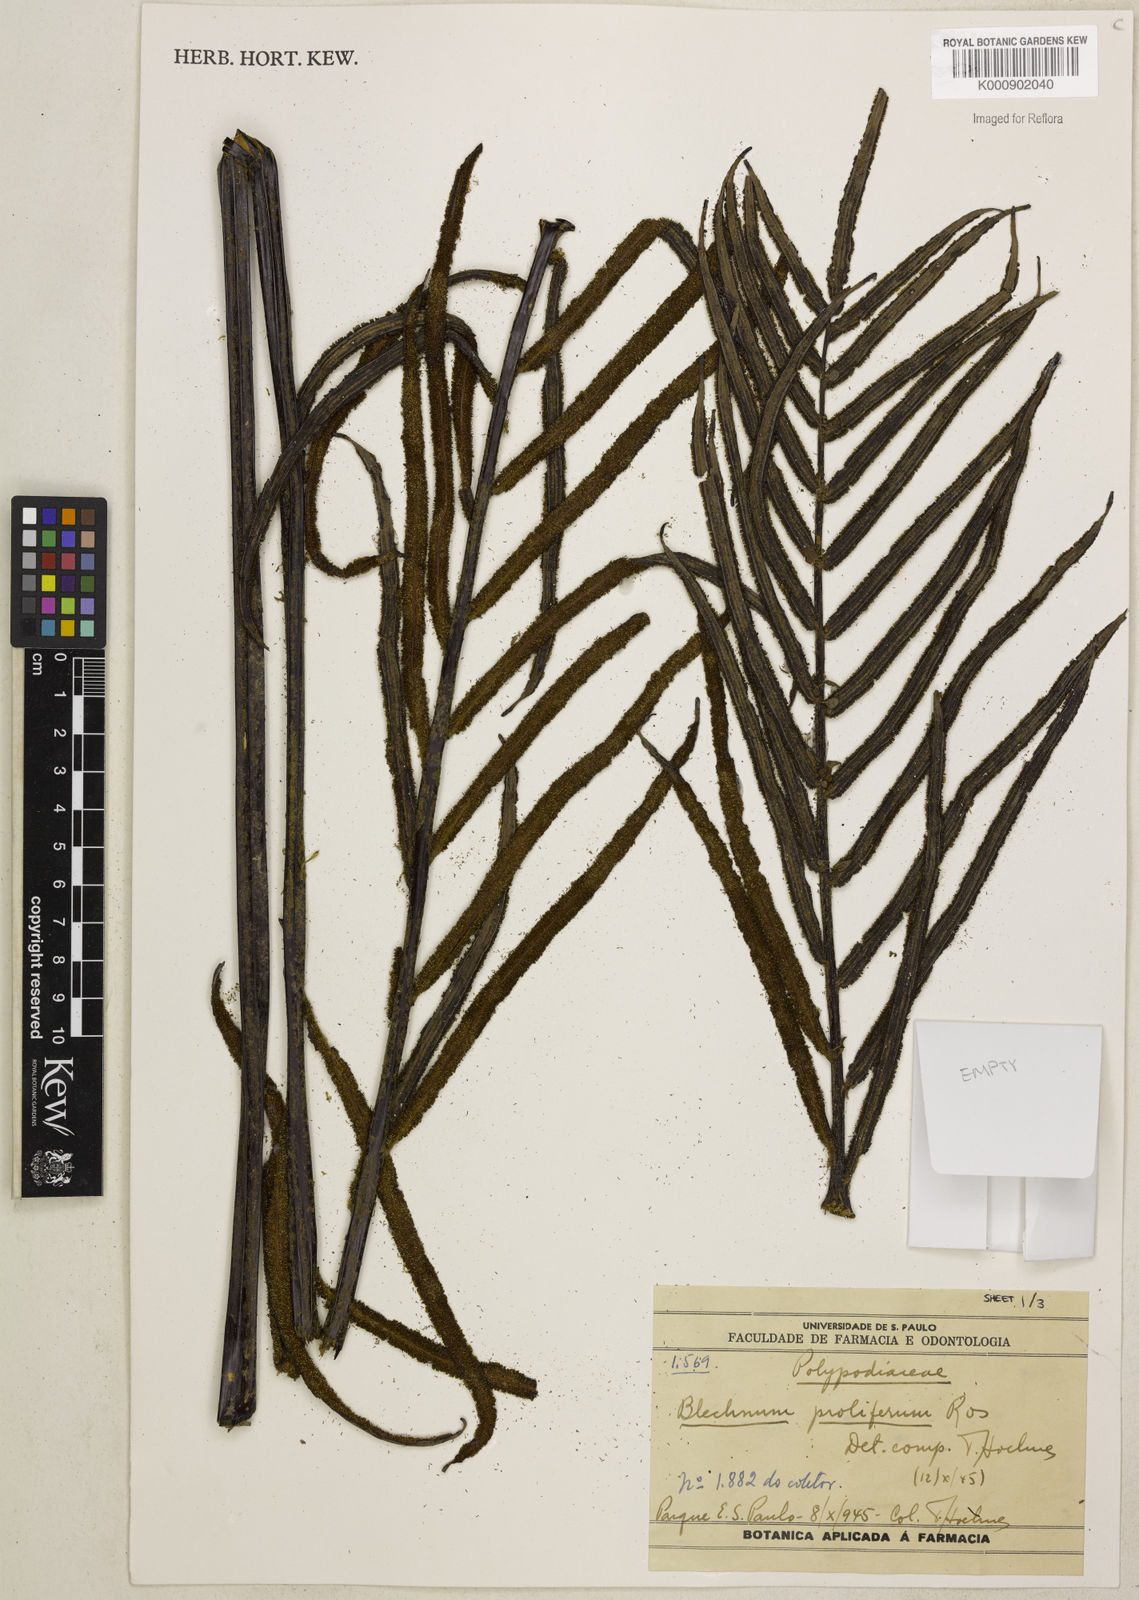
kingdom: Plantae
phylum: Tracheophyta
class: Polypodiopsida
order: Polypodiales
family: Blechnaceae
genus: Parablechnum
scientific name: Parablechnum proliferum
